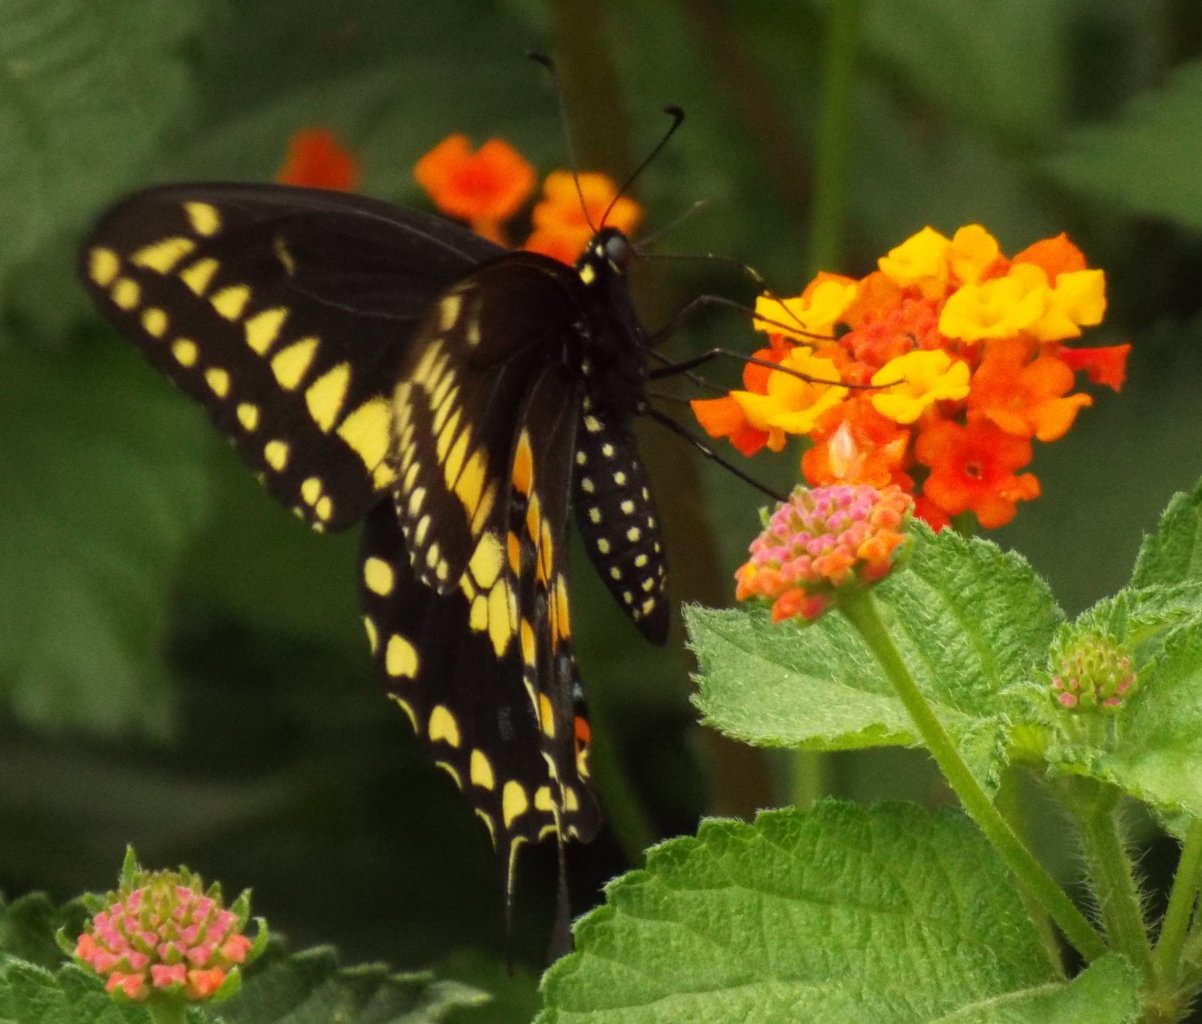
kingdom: Animalia
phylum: Arthropoda
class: Insecta
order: Lepidoptera
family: Papilionidae
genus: Papilio
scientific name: Papilio polyxenes
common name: Black Swallowtail
